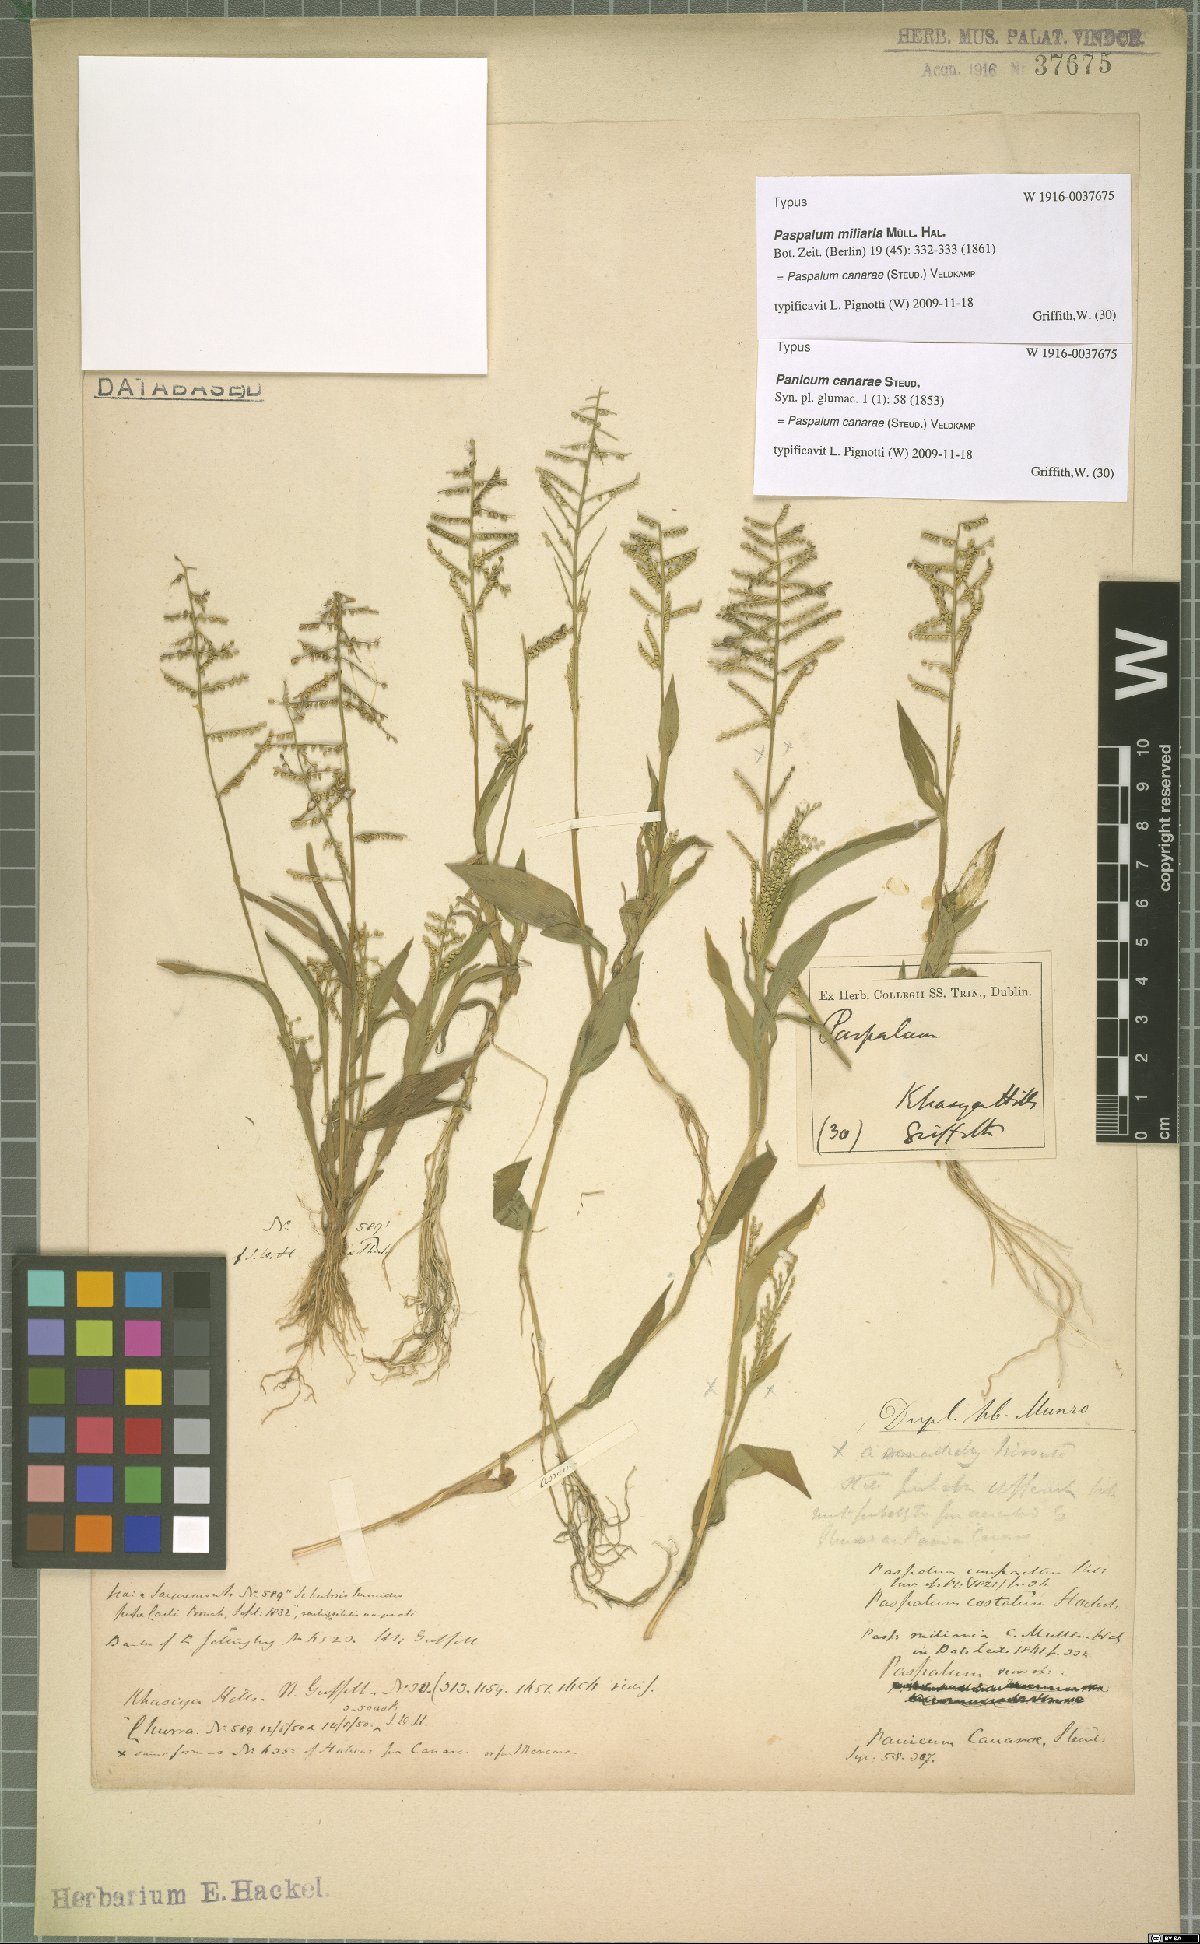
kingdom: Plantae
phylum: Tracheophyta
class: Liliopsida
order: Poales
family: Poaceae
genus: Paspalum
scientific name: Paspalum canarae
